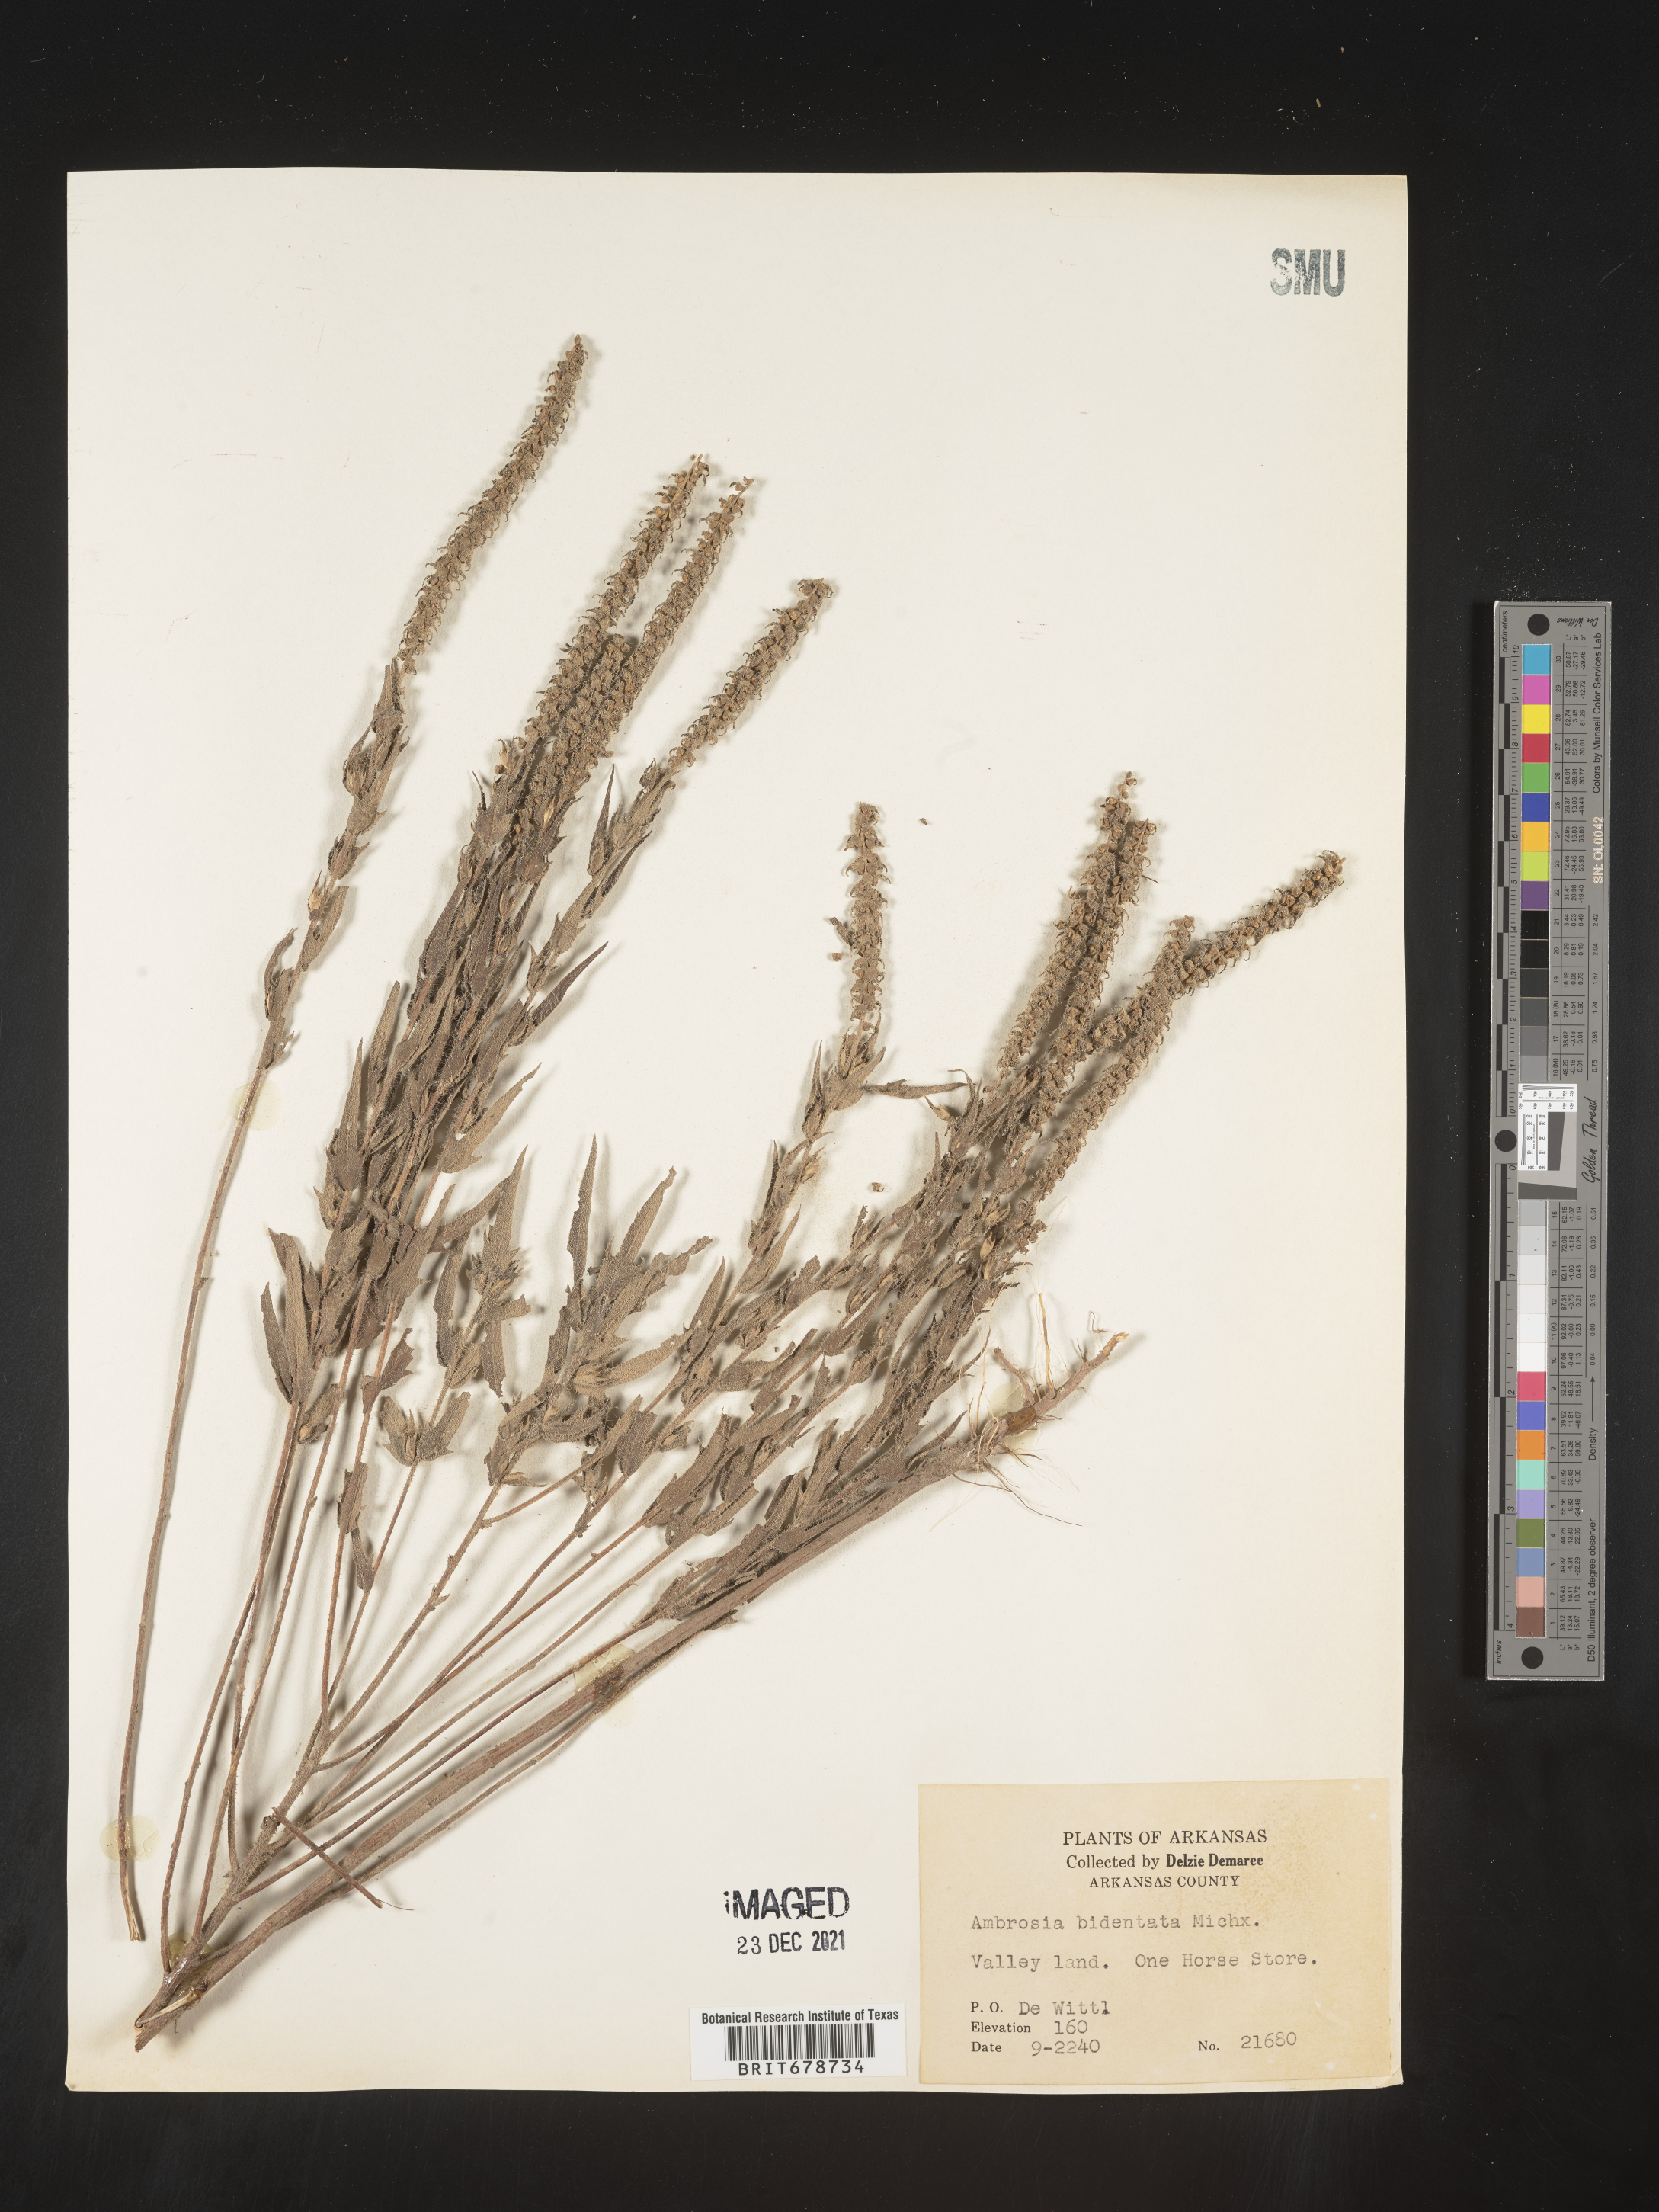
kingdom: Plantae
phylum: Tracheophyta
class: Magnoliopsida
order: Asterales
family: Asteraceae
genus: Ambrosia
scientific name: Ambrosia bidentata
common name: Southern ragweed
